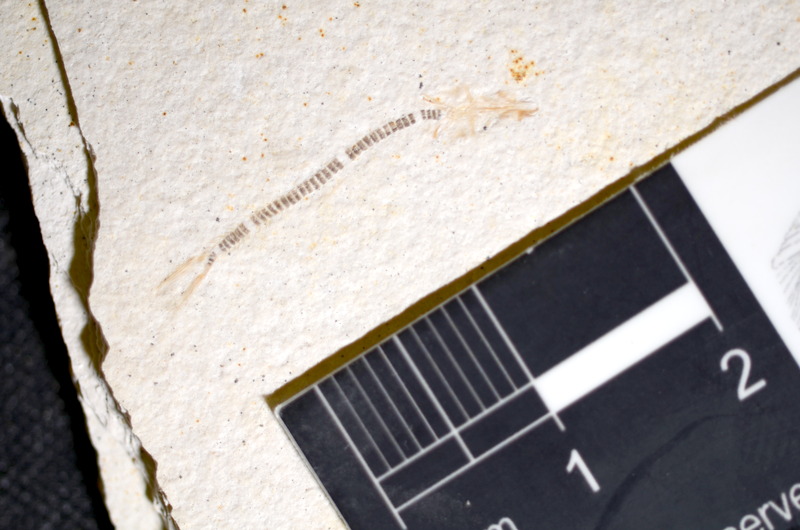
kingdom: Animalia
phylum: Chordata
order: Salmoniformes
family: Orthogonikleithridae
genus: Orthogonikleithrus
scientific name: Orthogonikleithrus hoelli
